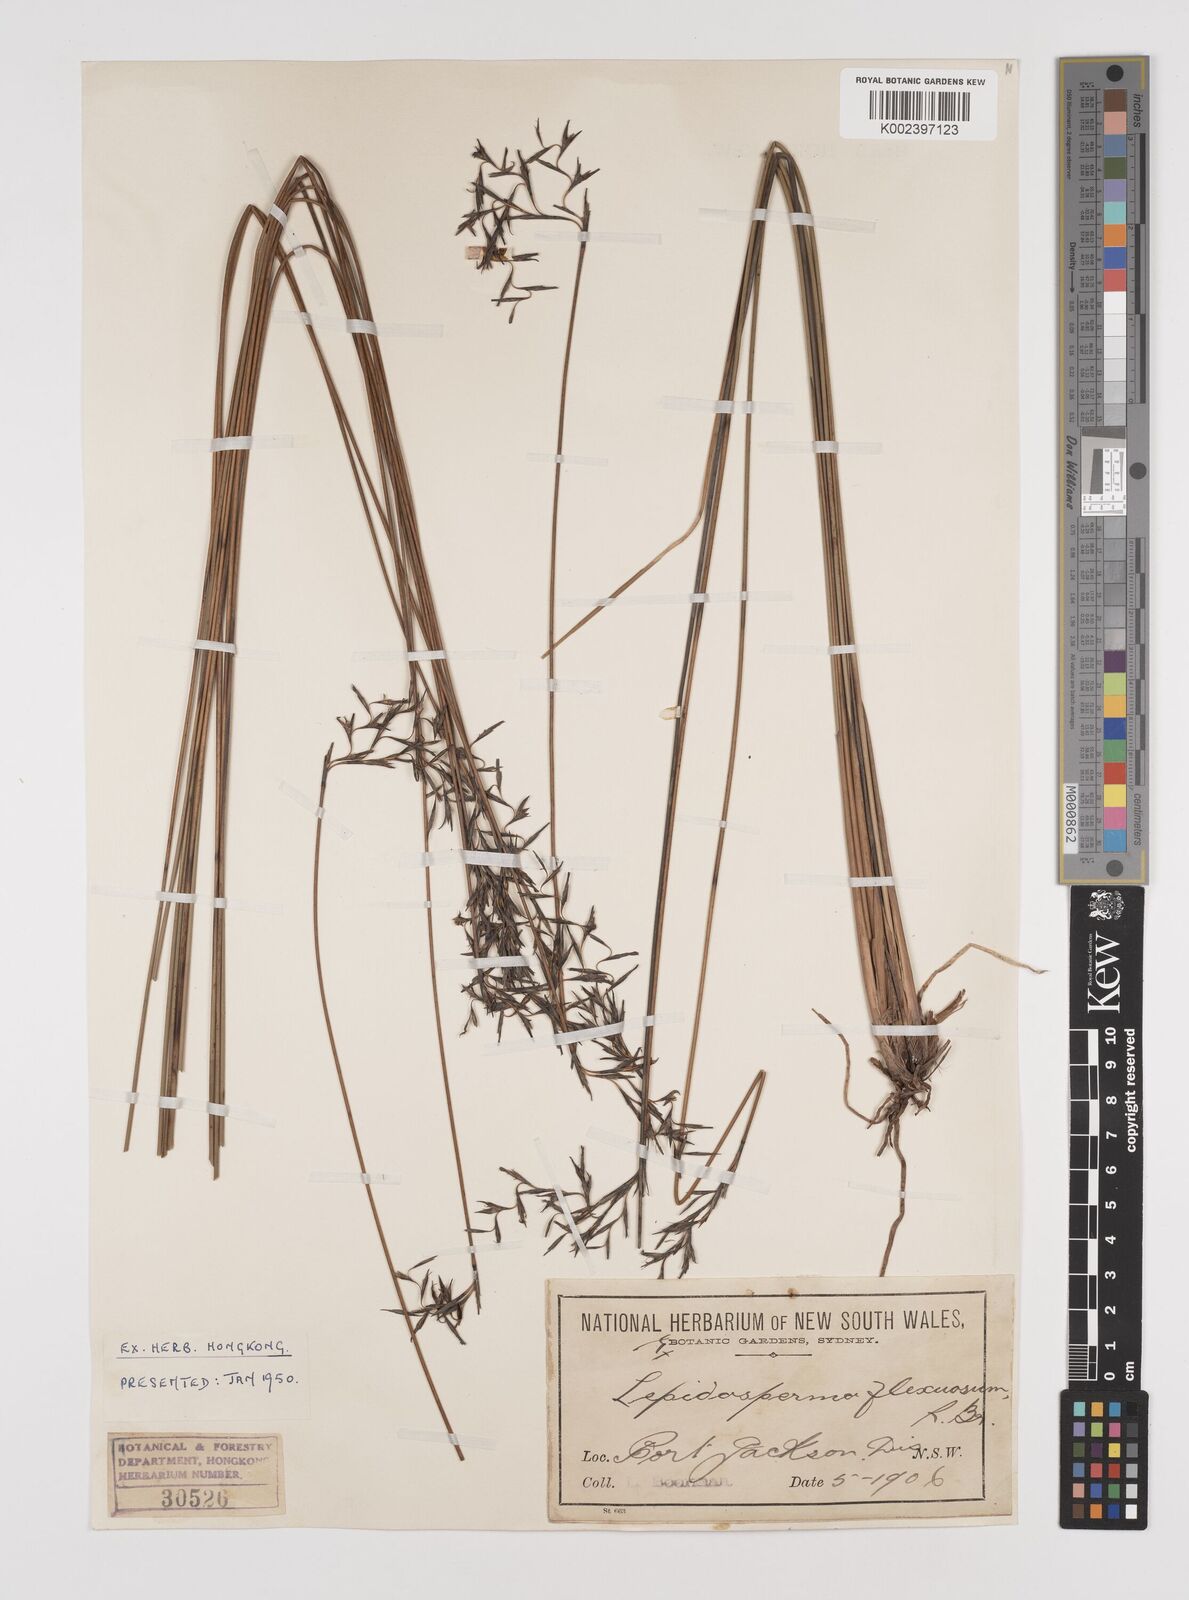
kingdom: Plantae
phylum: Tracheophyta
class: Liliopsida
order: Poales
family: Cyperaceae
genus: Lepidosperma
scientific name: Lepidosperma flexuosum
